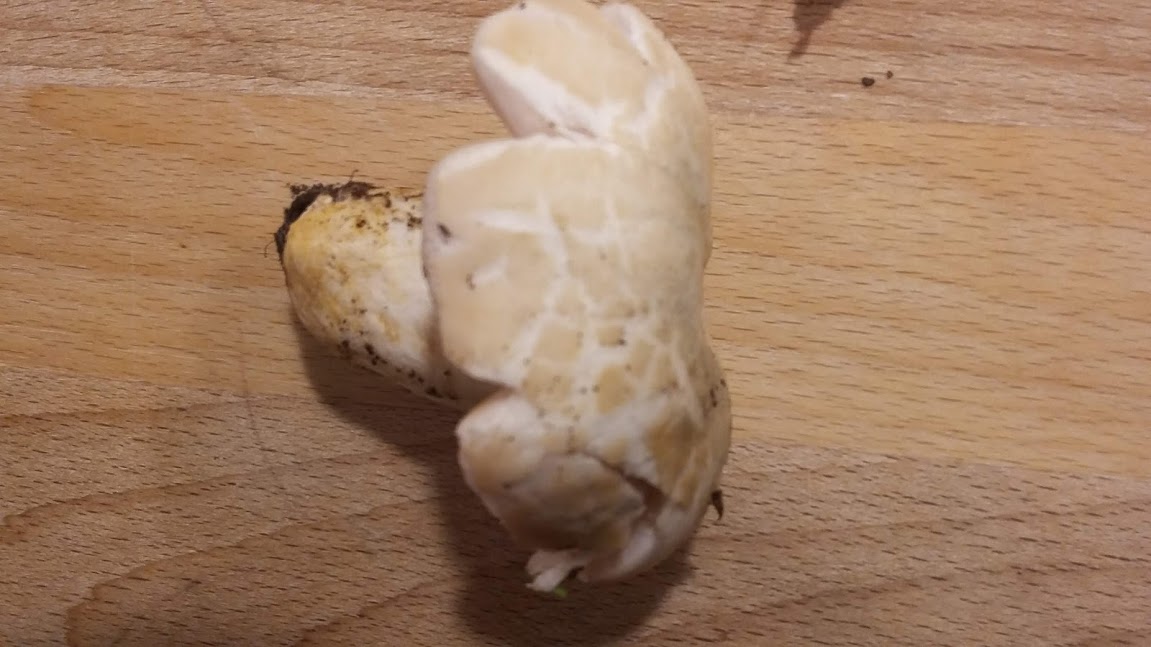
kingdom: Fungi
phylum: Basidiomycota
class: Agaricomycetes
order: Russulales
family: Russulaceae
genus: Russula
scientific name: Russula virescens
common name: spanskgrøn skørhat
